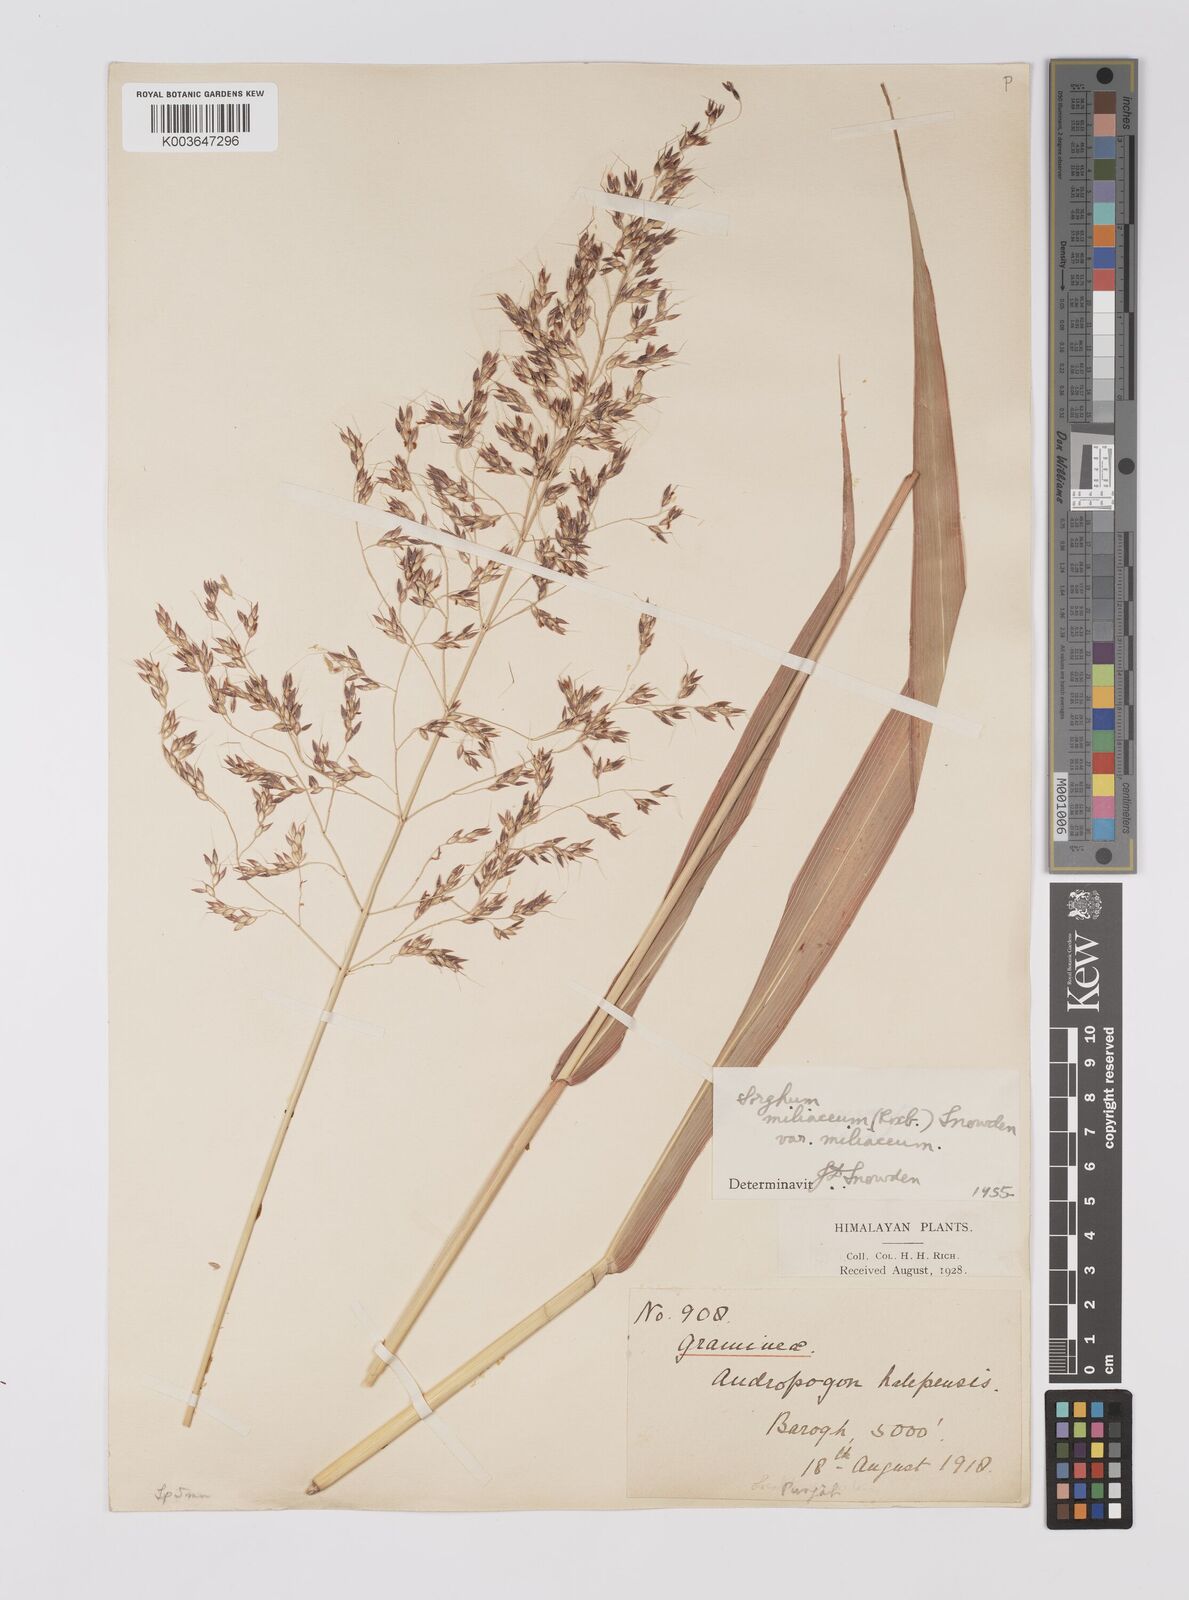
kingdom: Plantae
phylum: Tracheophyta
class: Liliopsida
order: Poales
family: Poaceae
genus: Sorghum
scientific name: Sorghum halepense
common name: Johnson-grass
